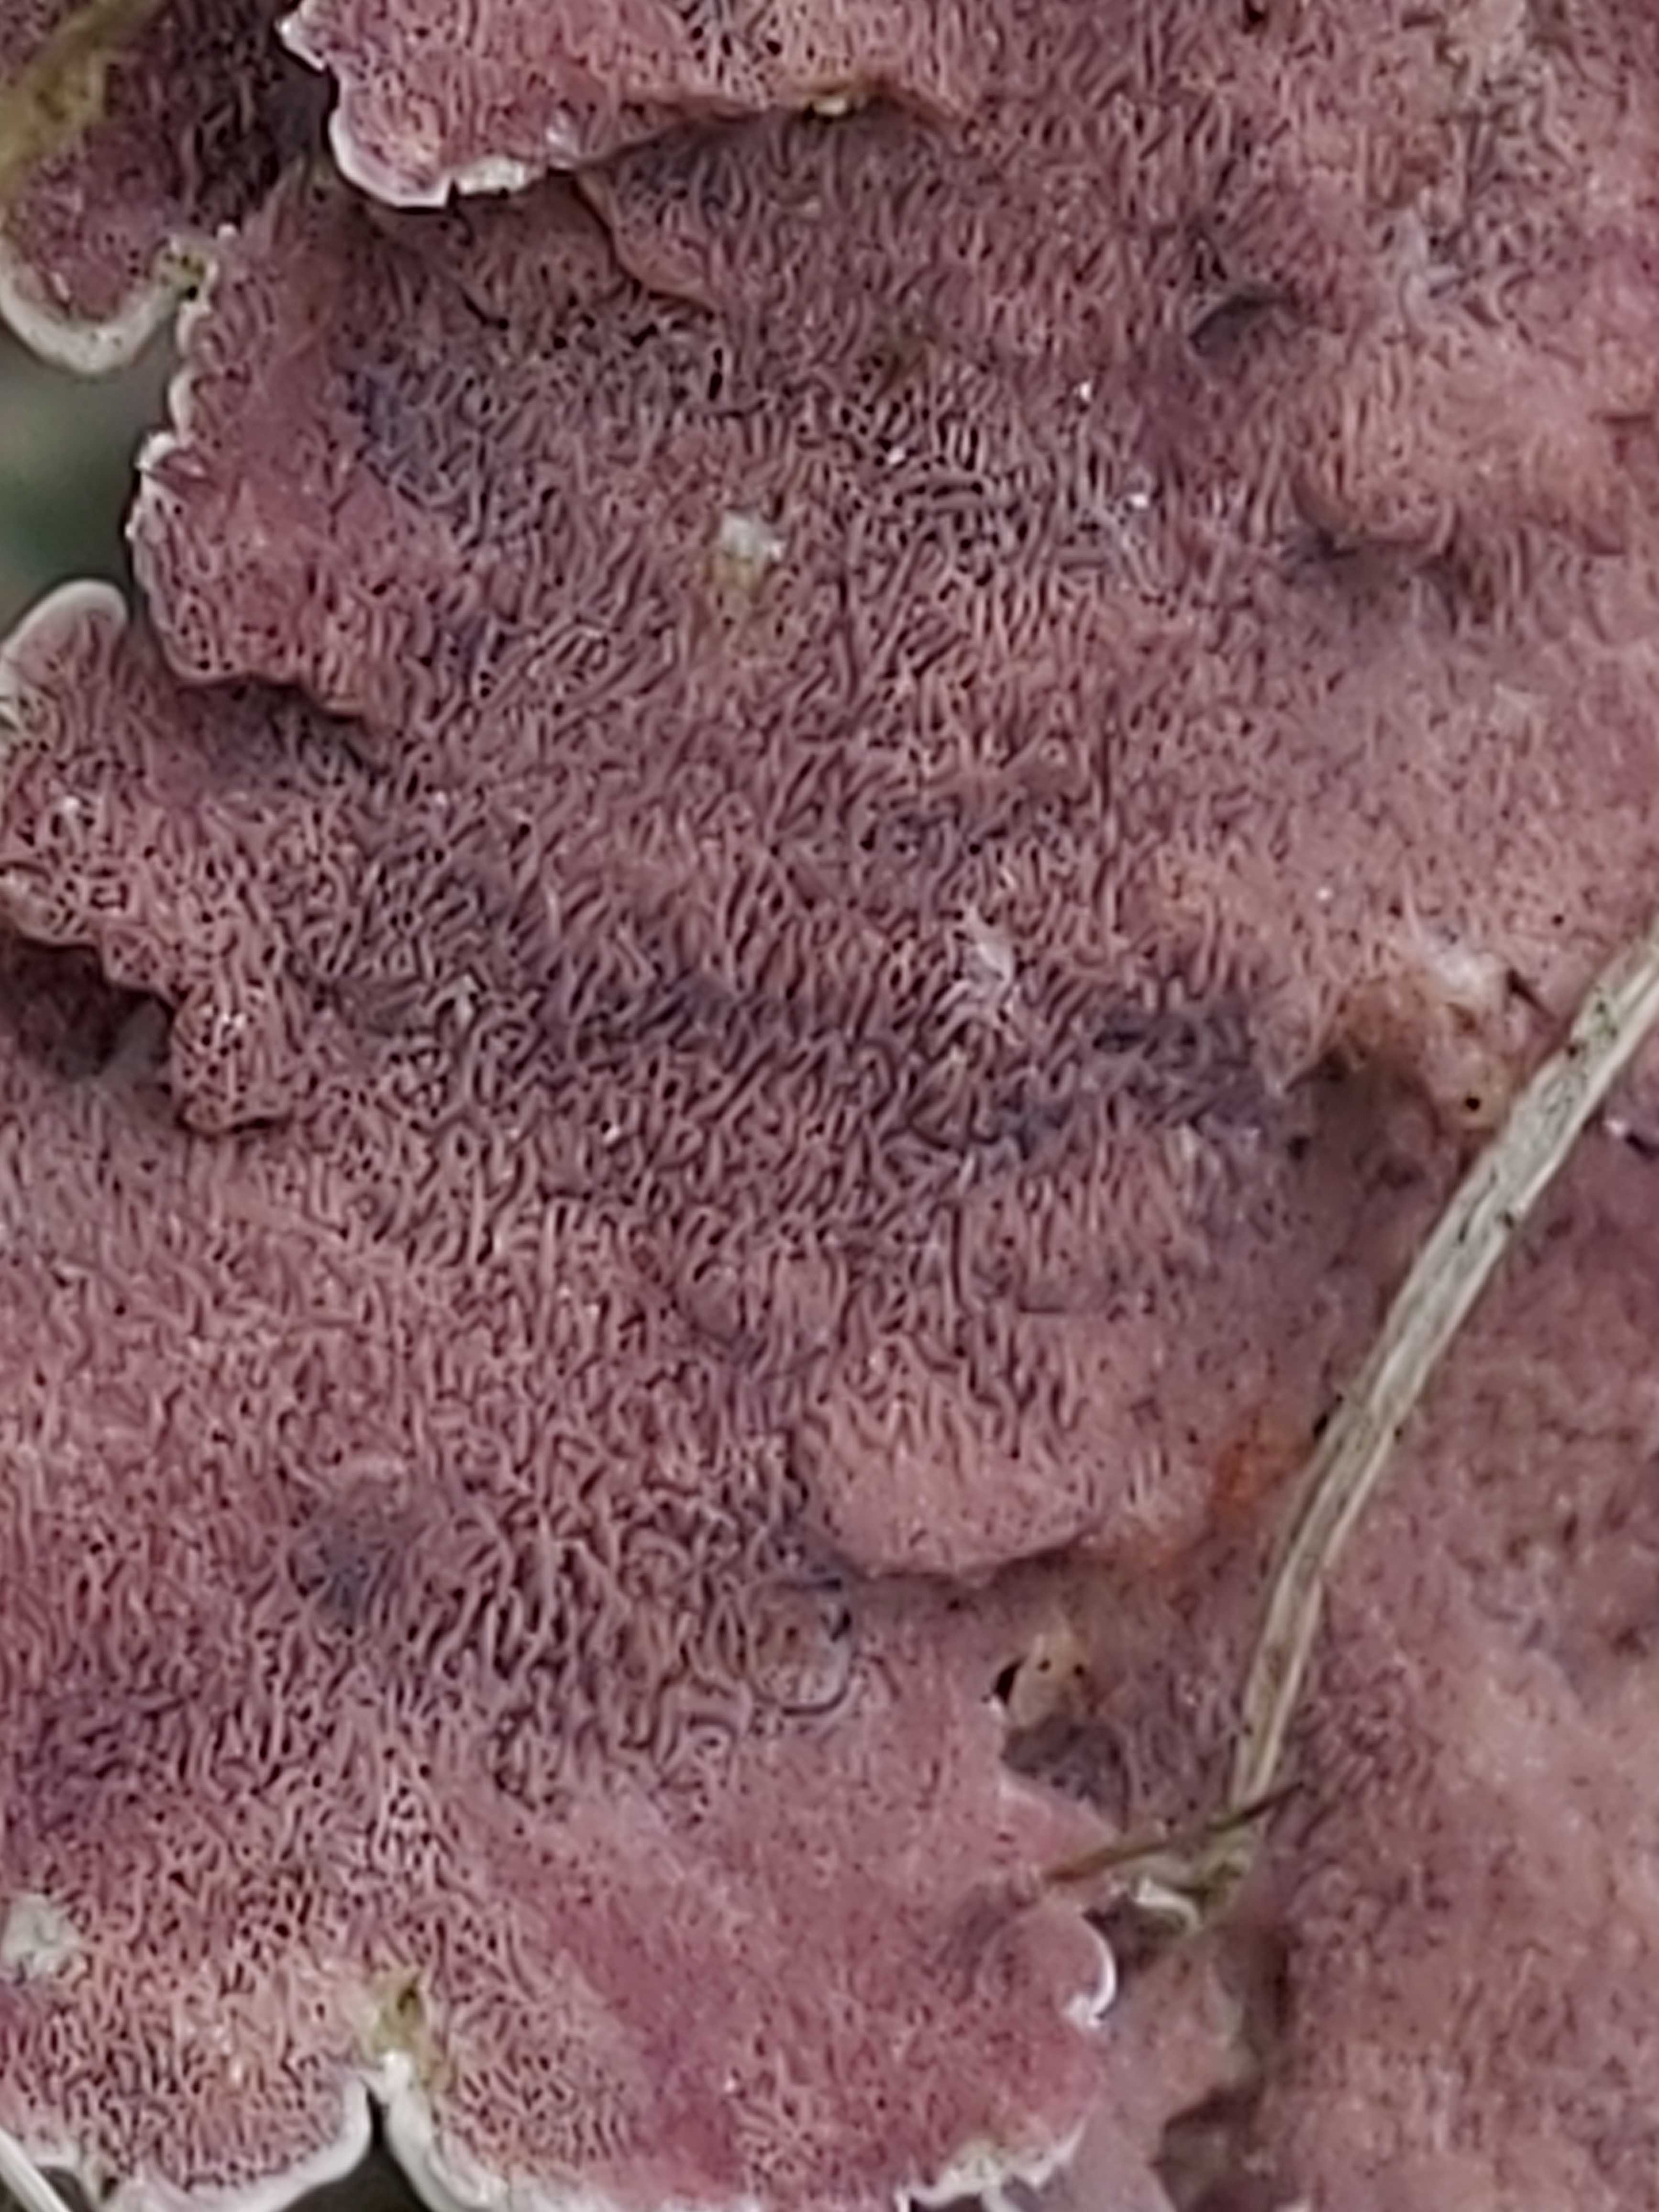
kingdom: Fungi
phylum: Basidiomycota
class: Agaricomycetes
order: Hymenochaetales
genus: Trichaptum
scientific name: Trichaptum abietinum
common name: almindelig violporesvamp
